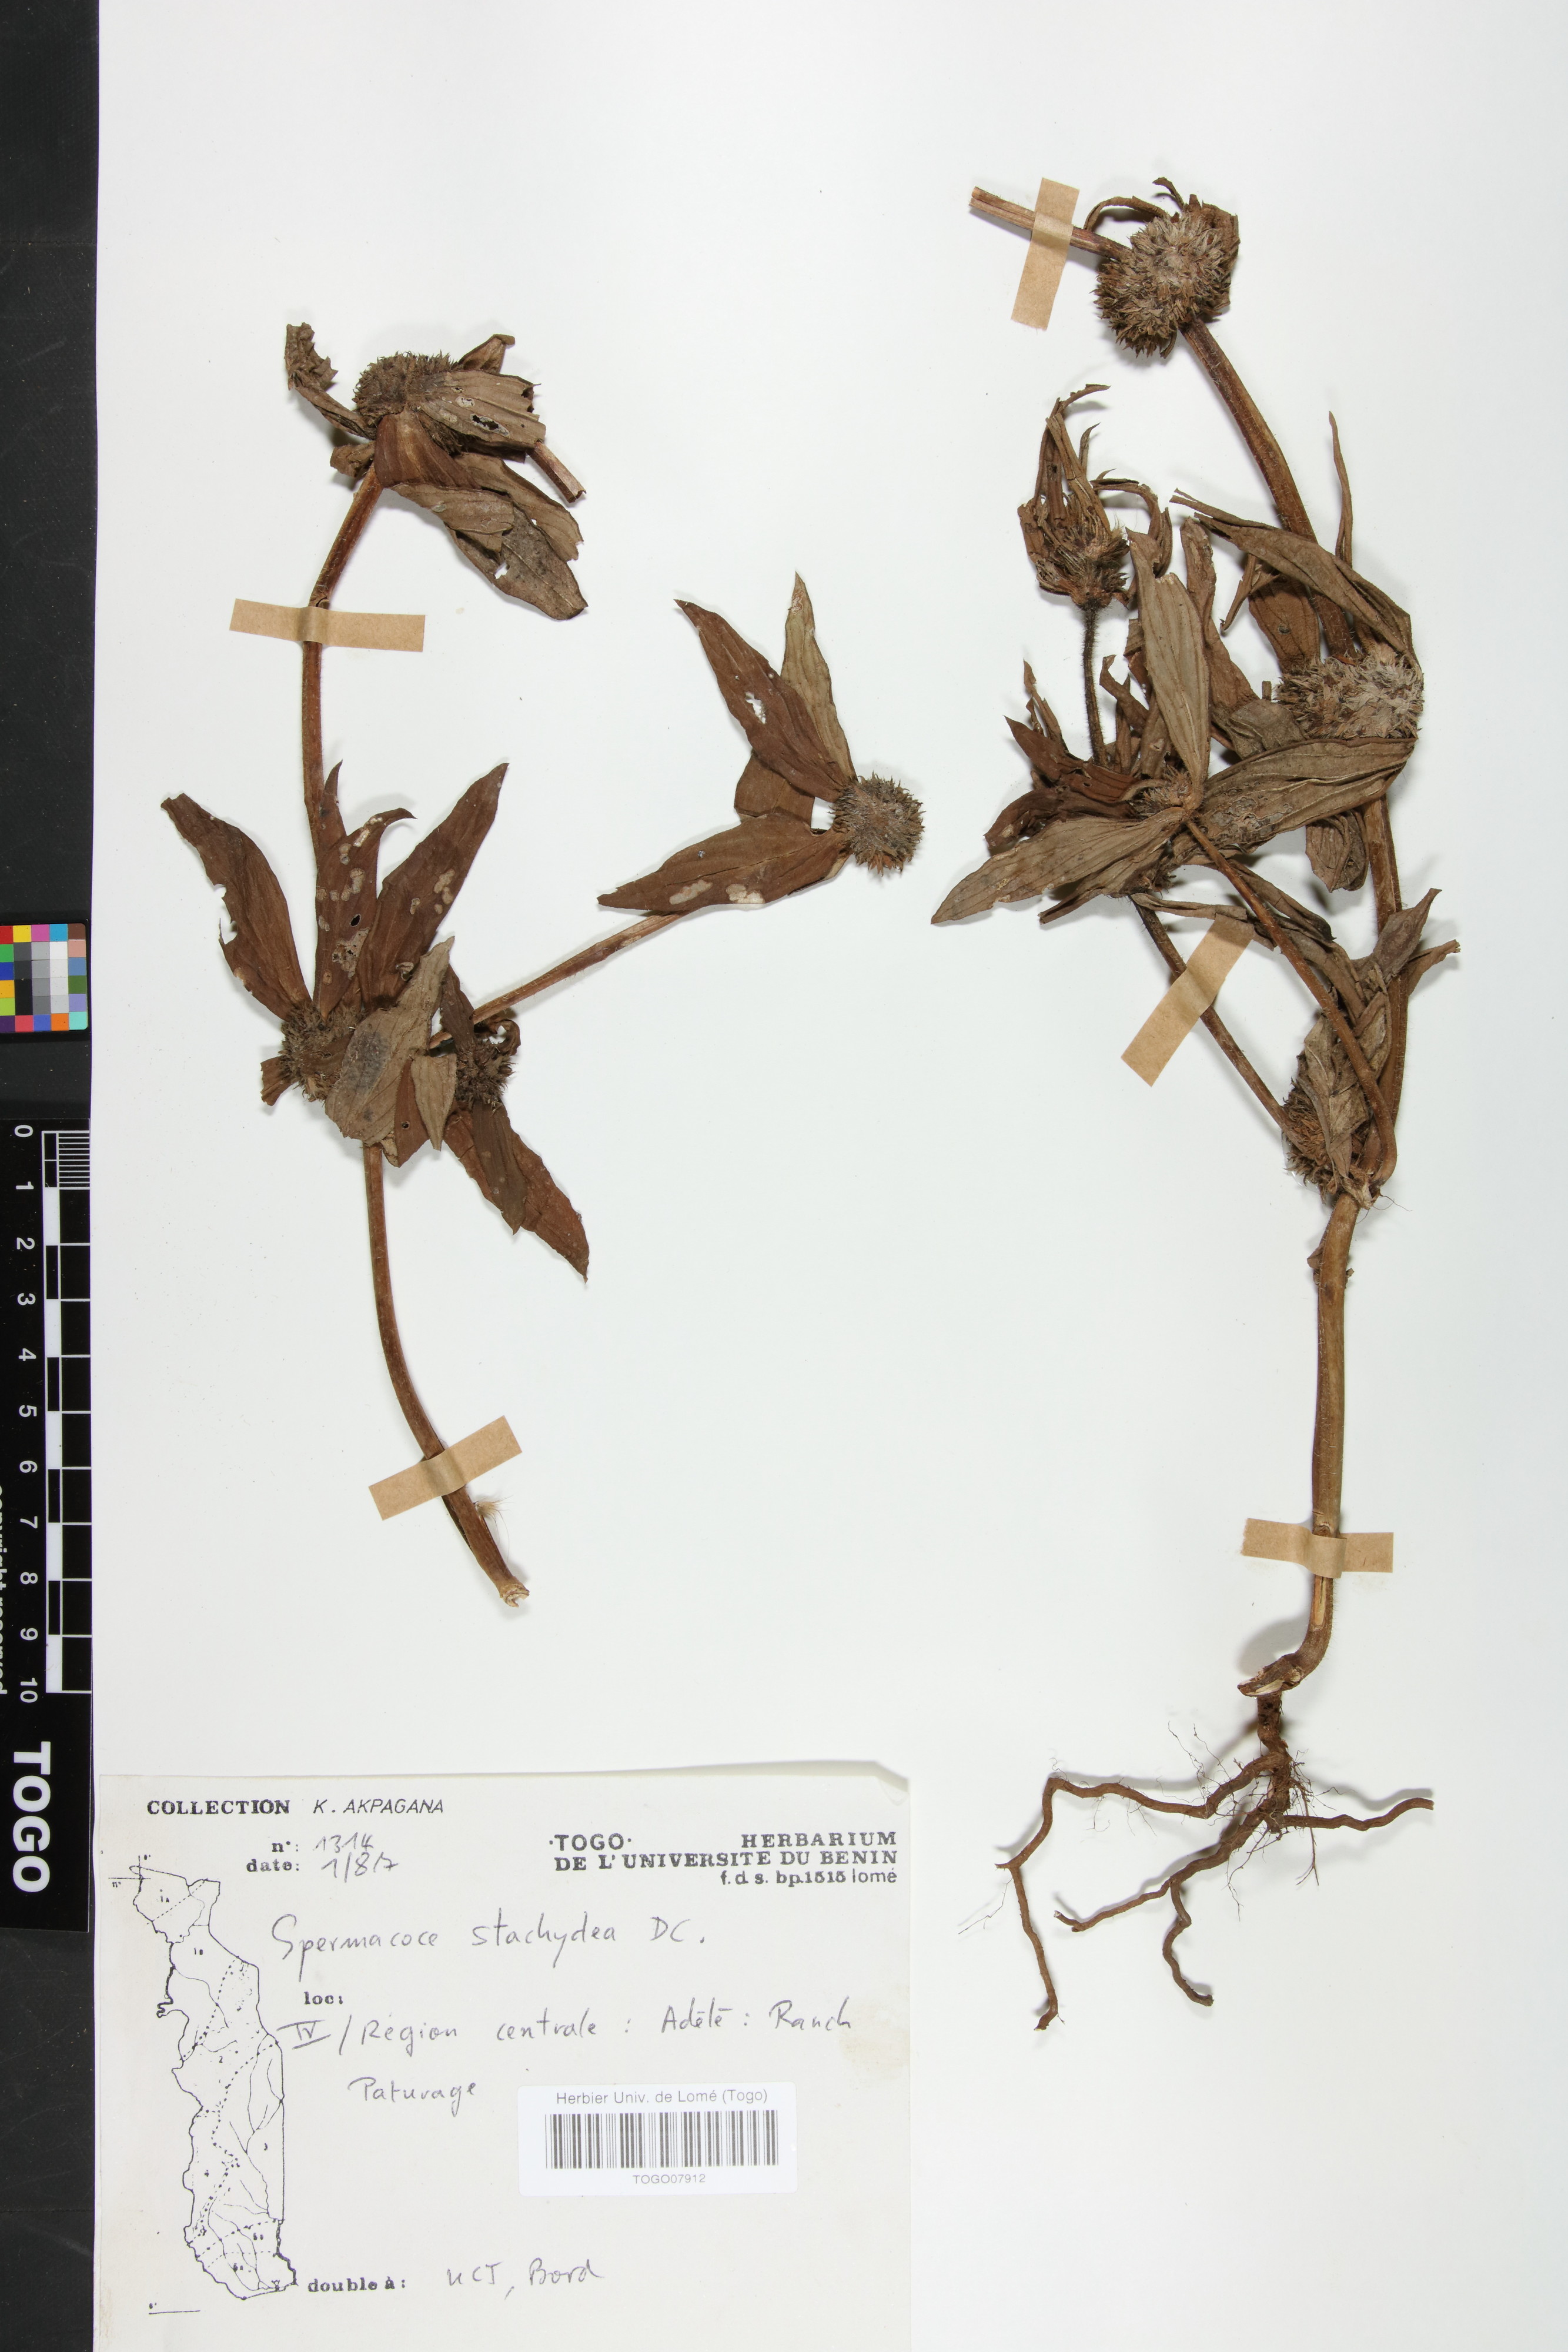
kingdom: Plantae
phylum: Tracheophyta
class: Magnoliopsida
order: Gentianales
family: Rubiaceae
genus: Spermacoce
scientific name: Spermacoce stachydea
